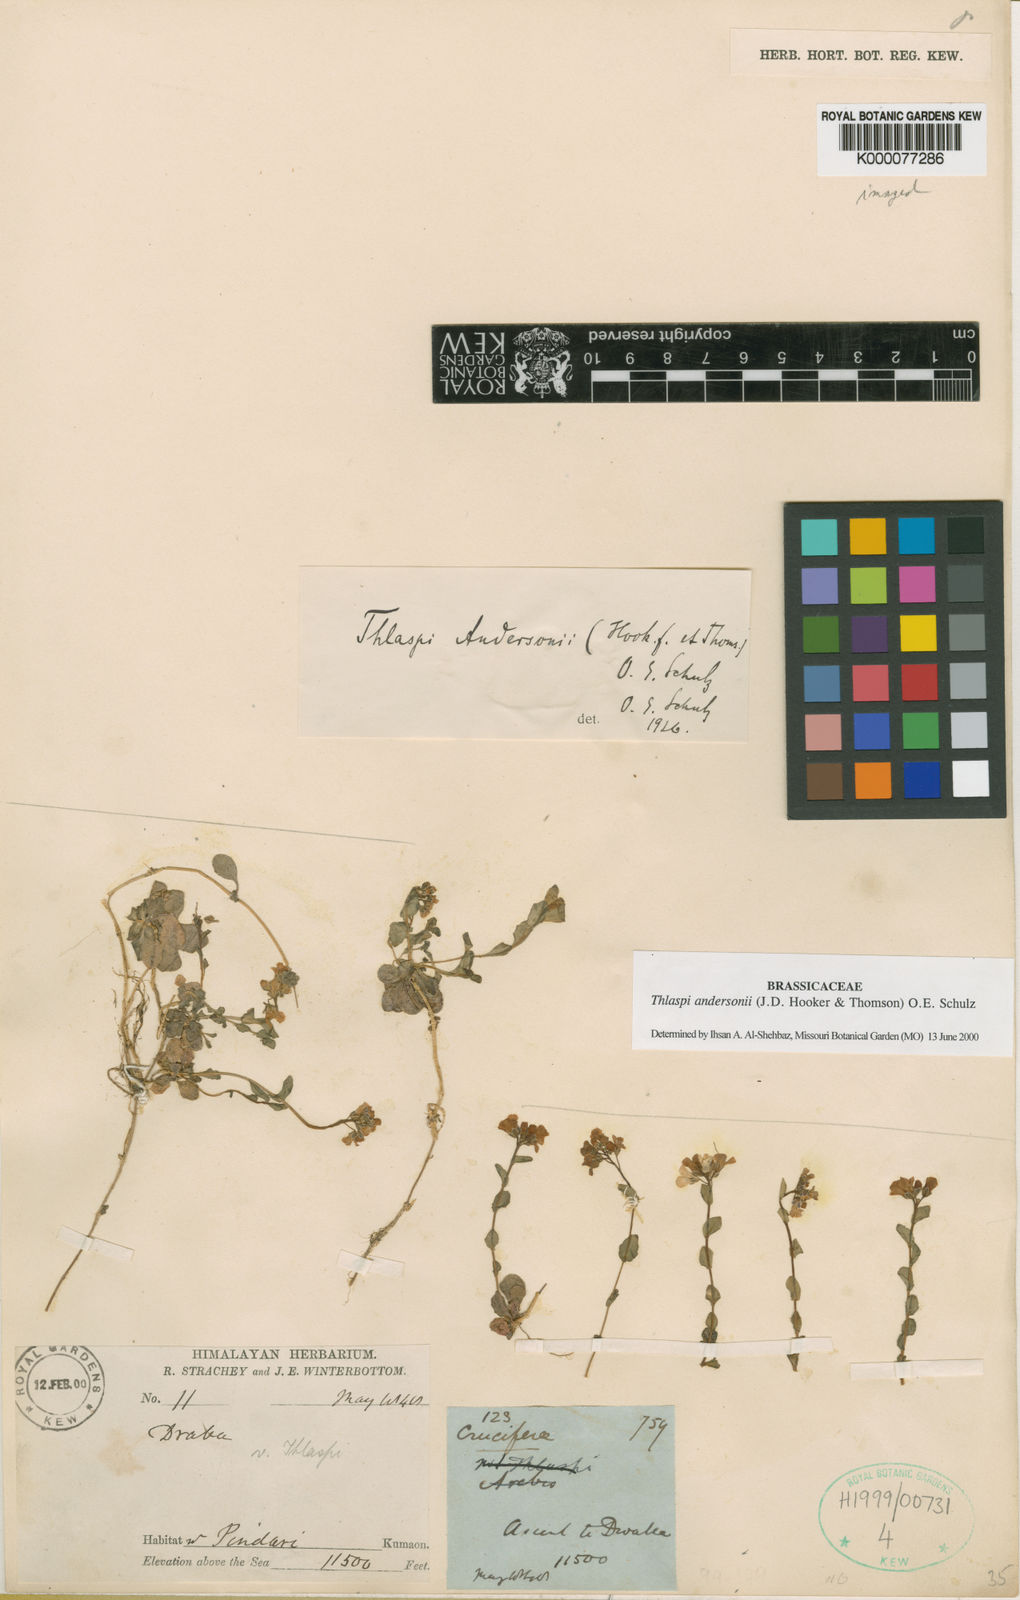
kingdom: Plantae
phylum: Tracheophyta
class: Magnoliopsida
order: Brassicales
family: Brassicaceae
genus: Noccaea
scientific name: Noccaea andersonii
